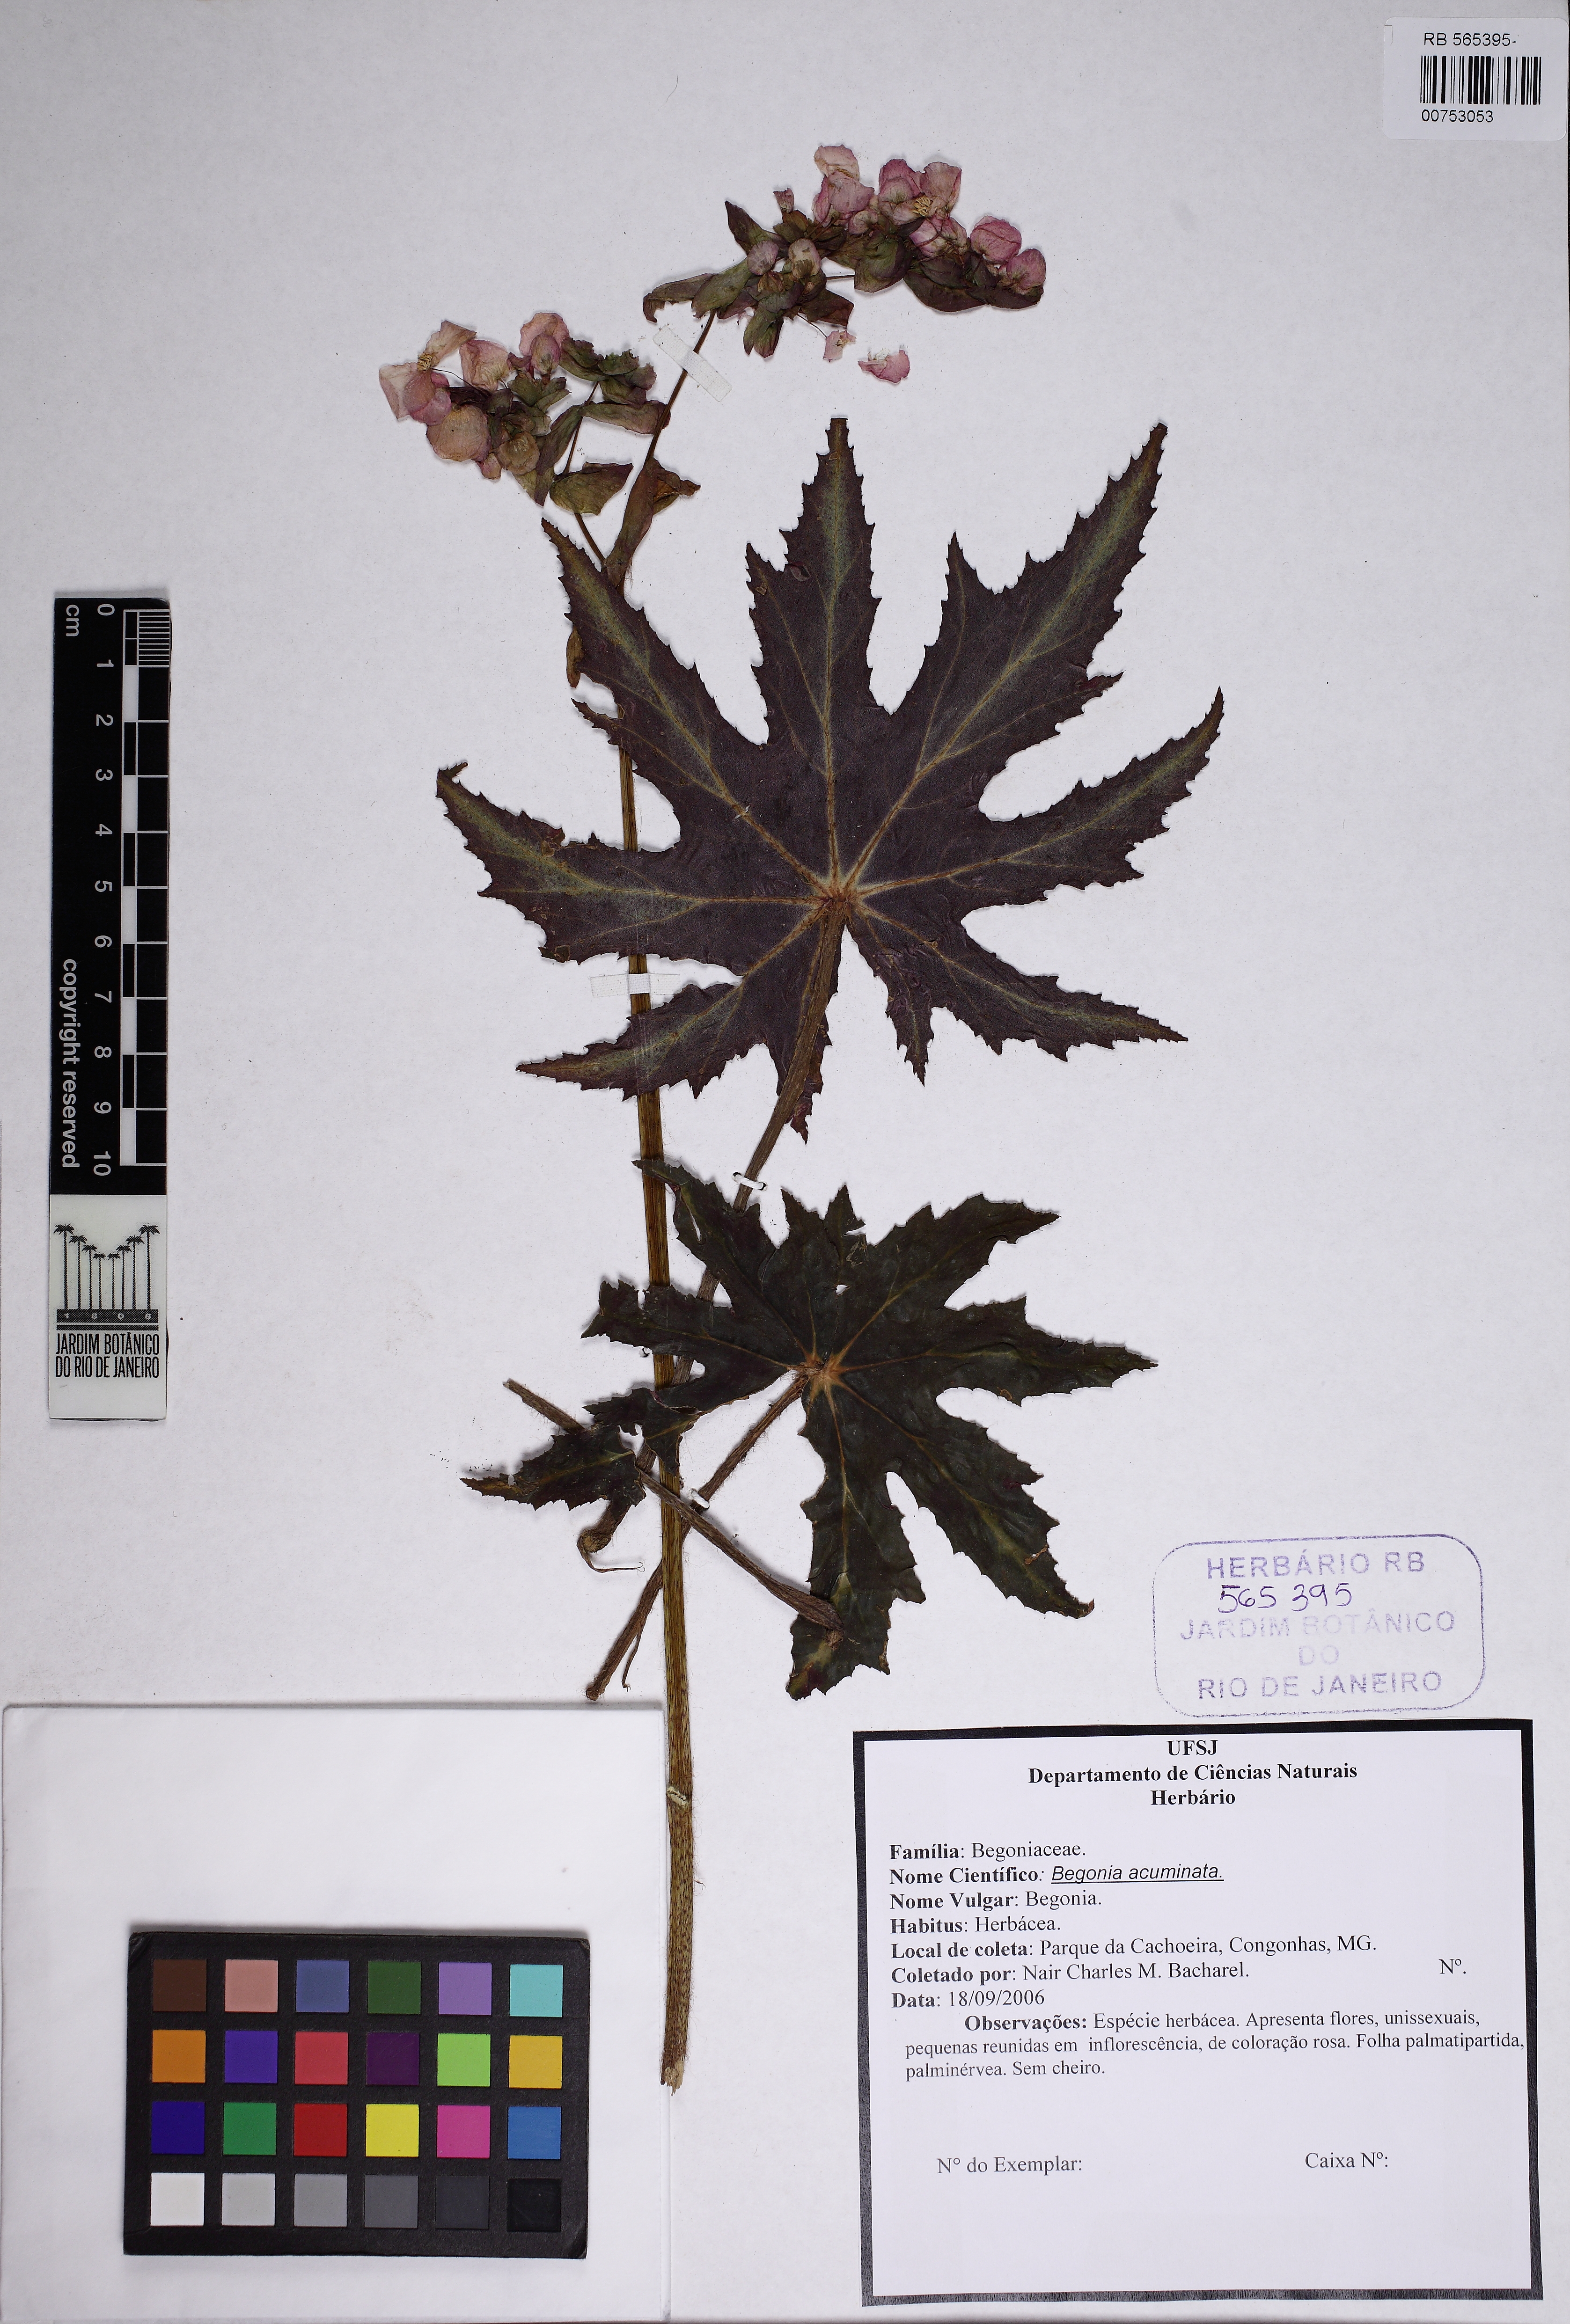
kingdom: Plantae
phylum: Tracheophyta
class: Magnoliopsida
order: Cucurbitales
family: Begoniaceae
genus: Begonia
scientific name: Begonia acutifolia
